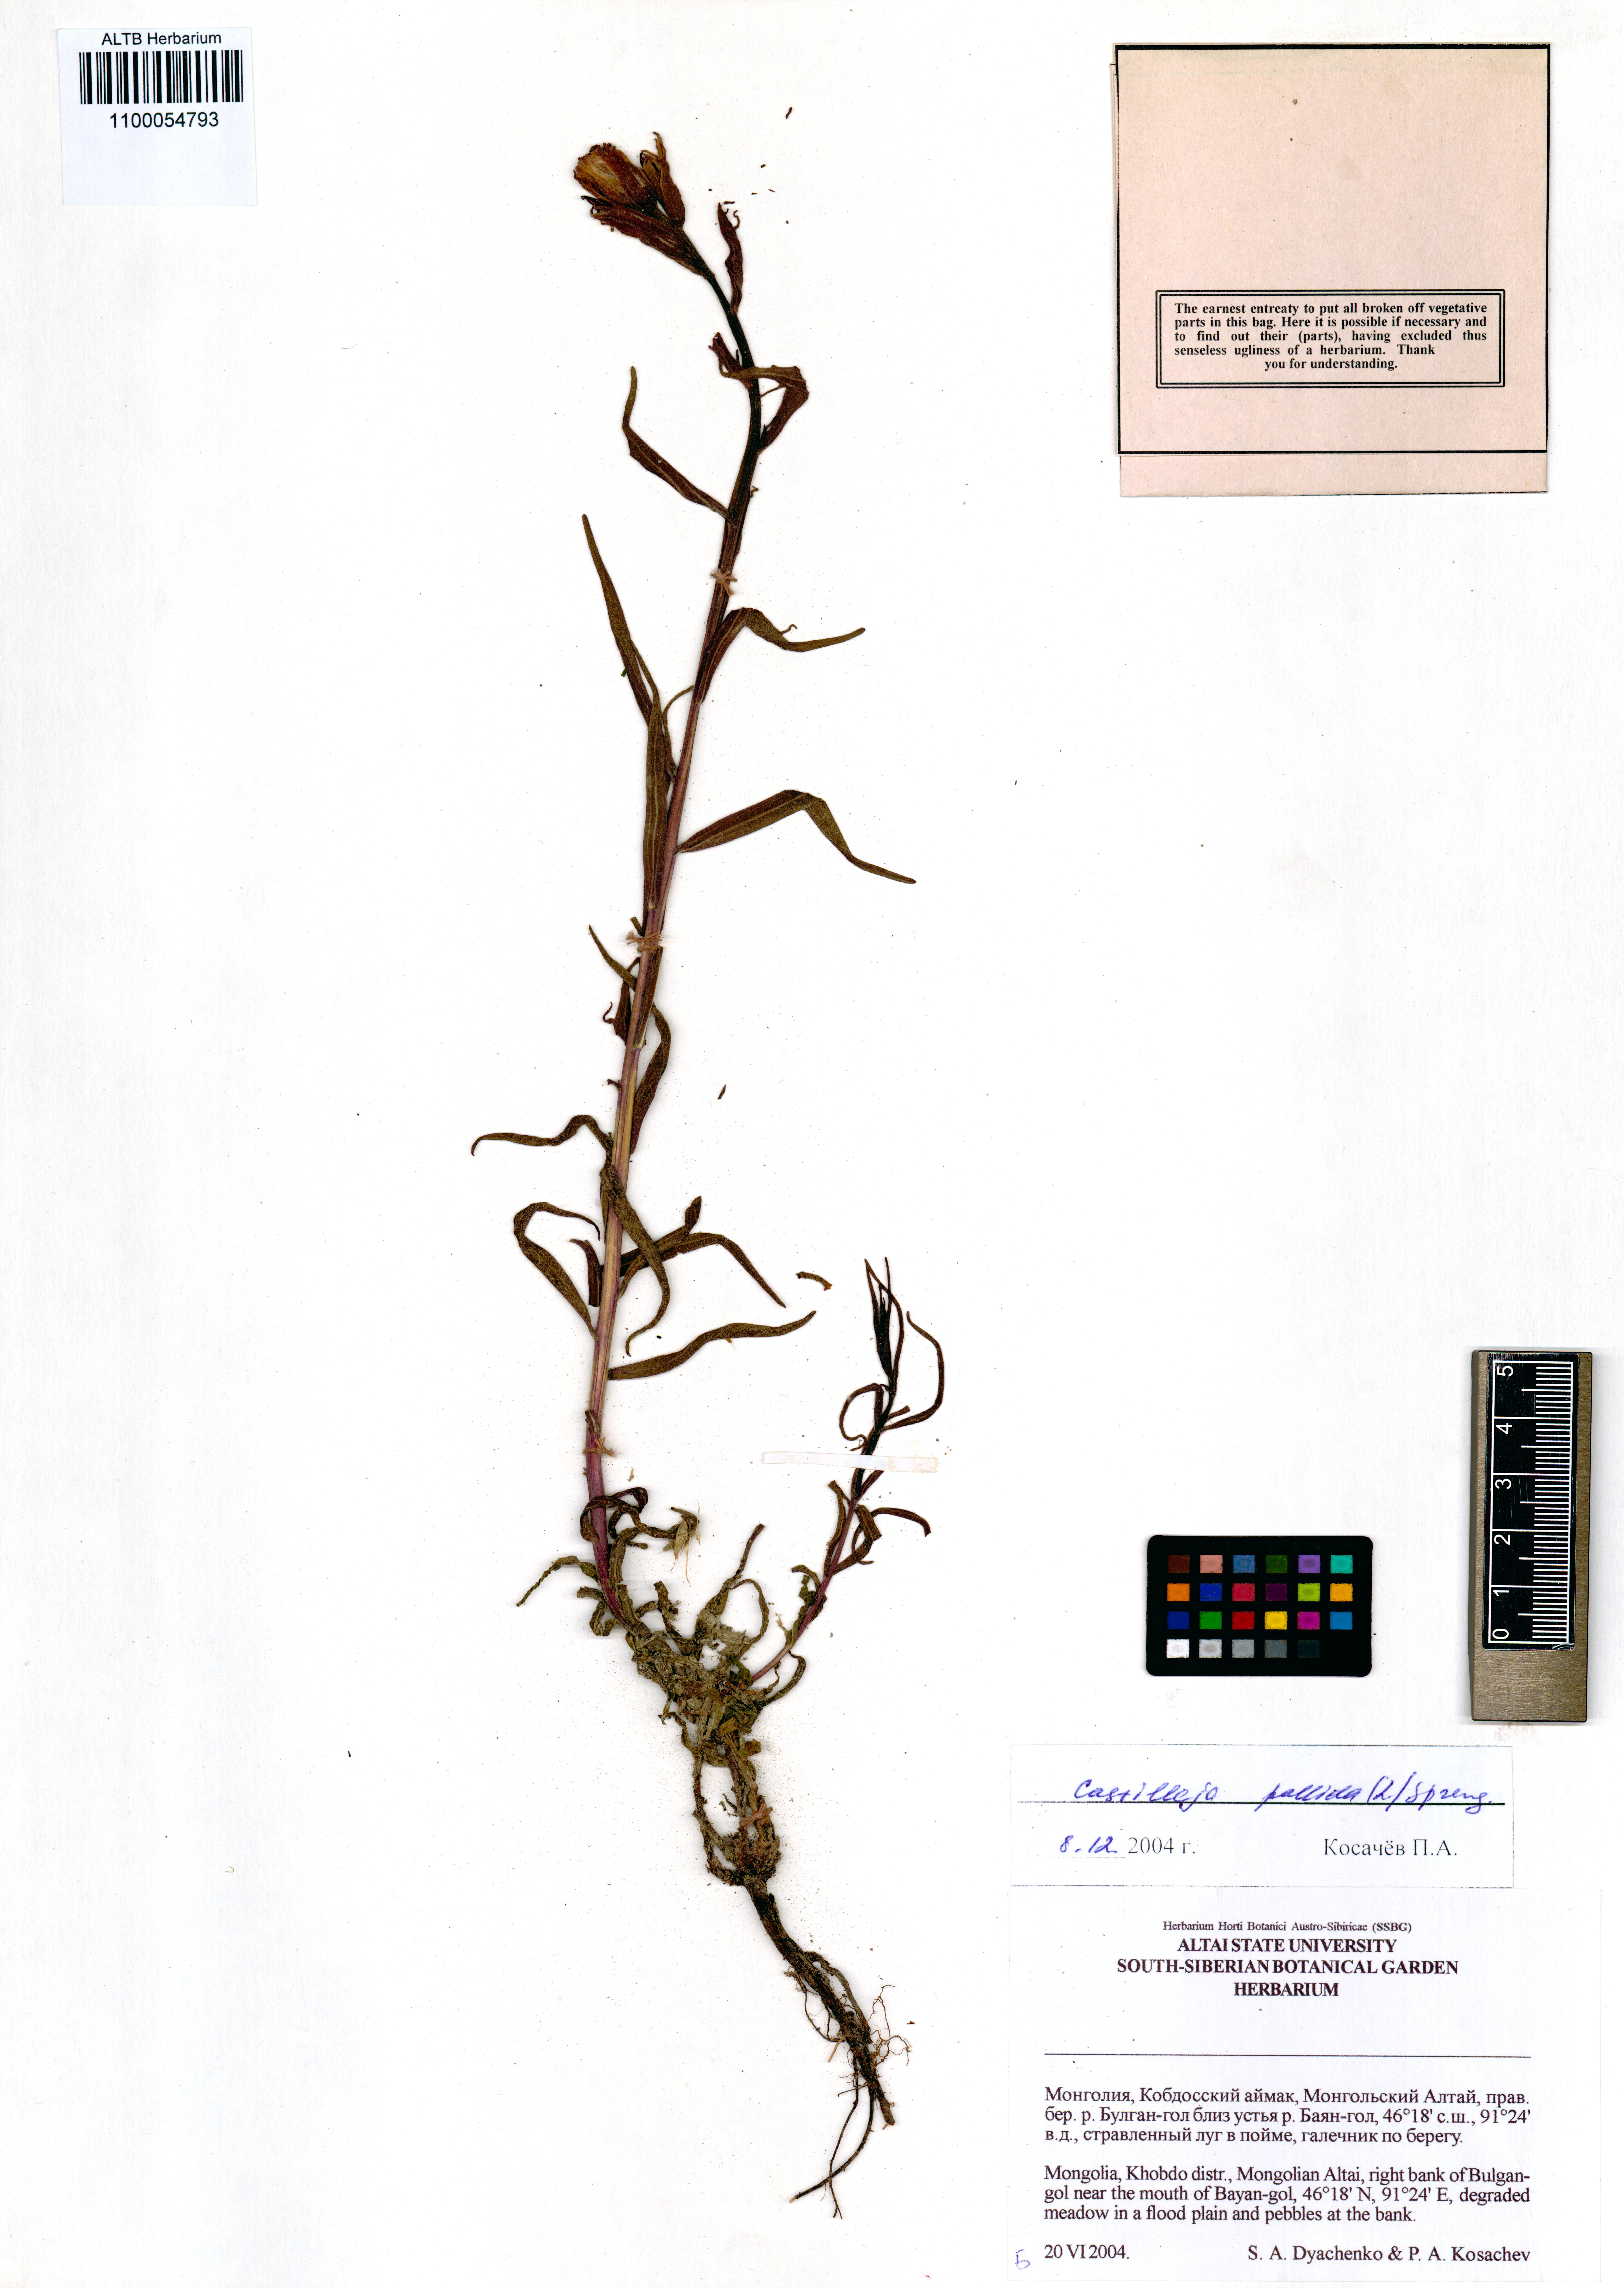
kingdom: Plantae
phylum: Tracheophyta
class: Magnoliopsida
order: Lamiales
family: Orobanchaceae
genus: Castilleja
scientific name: Castilleja pallida
